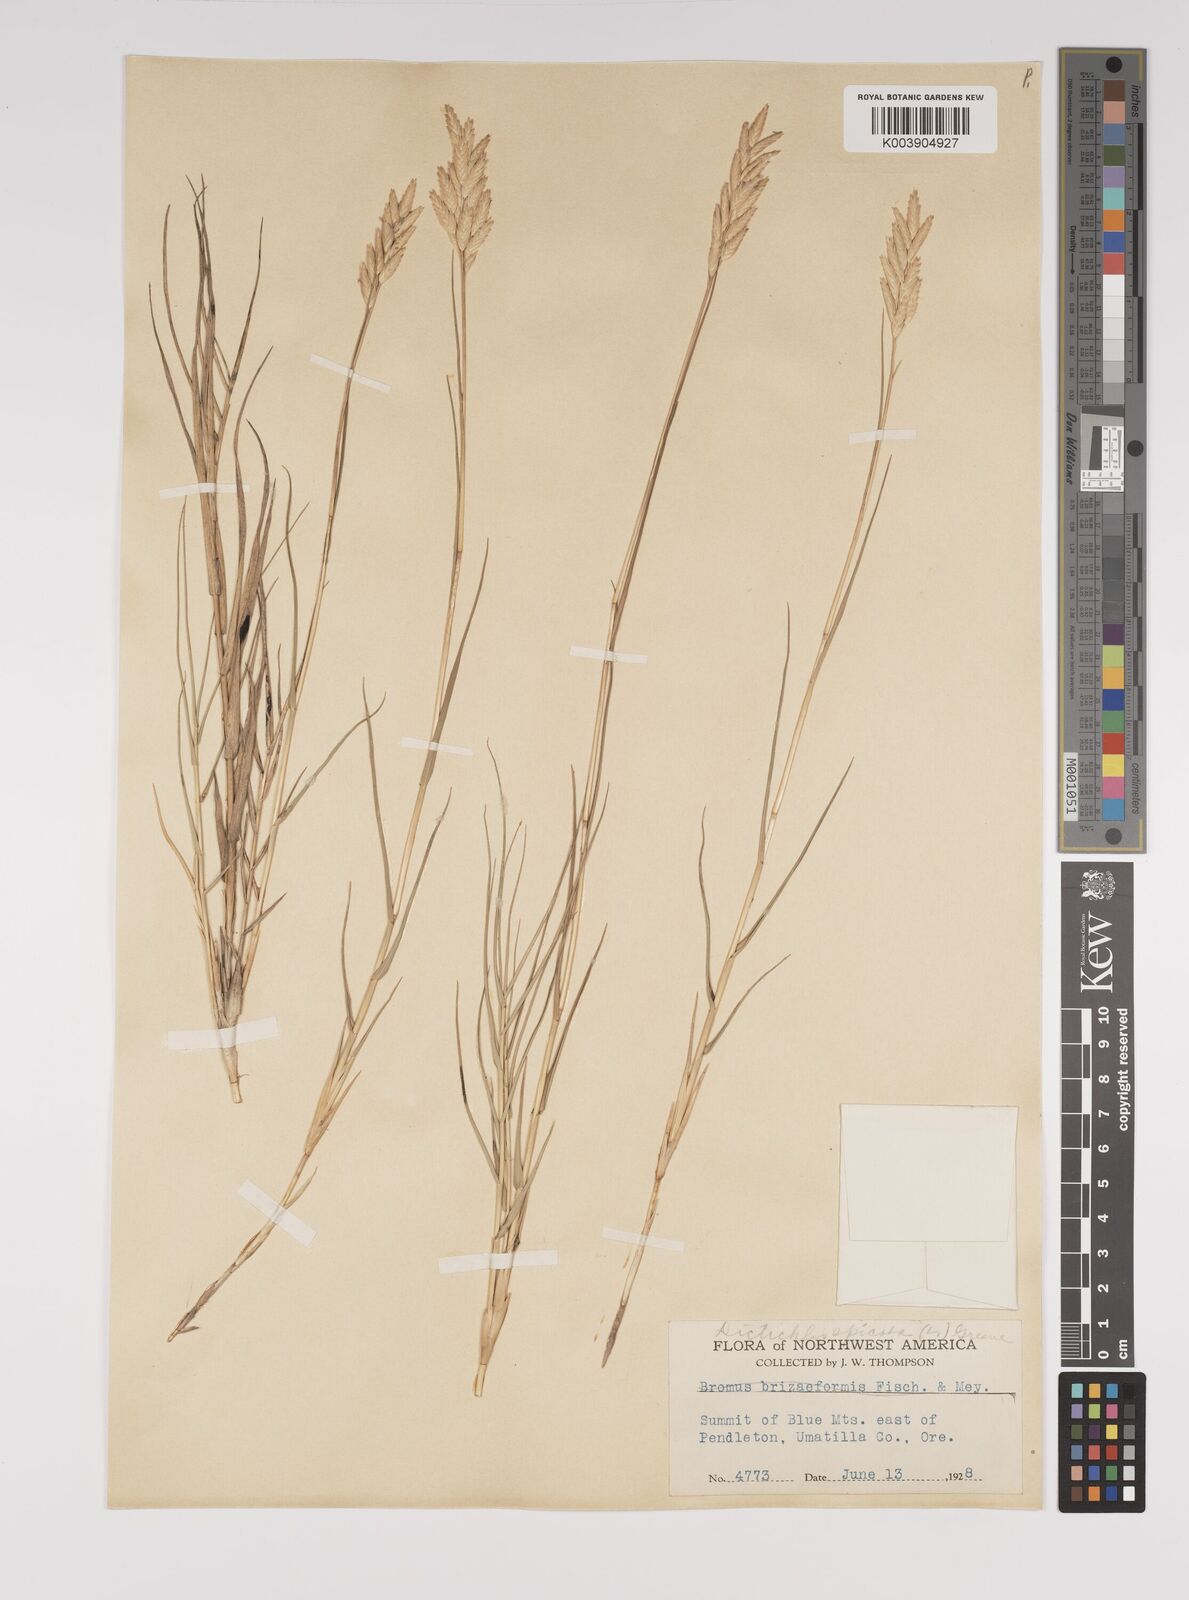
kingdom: Plantae
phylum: Tracheophyta
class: Liliopsida
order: Poales
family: Poaceae
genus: Distichlis
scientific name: Distichlis spicata
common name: Saltgrass
